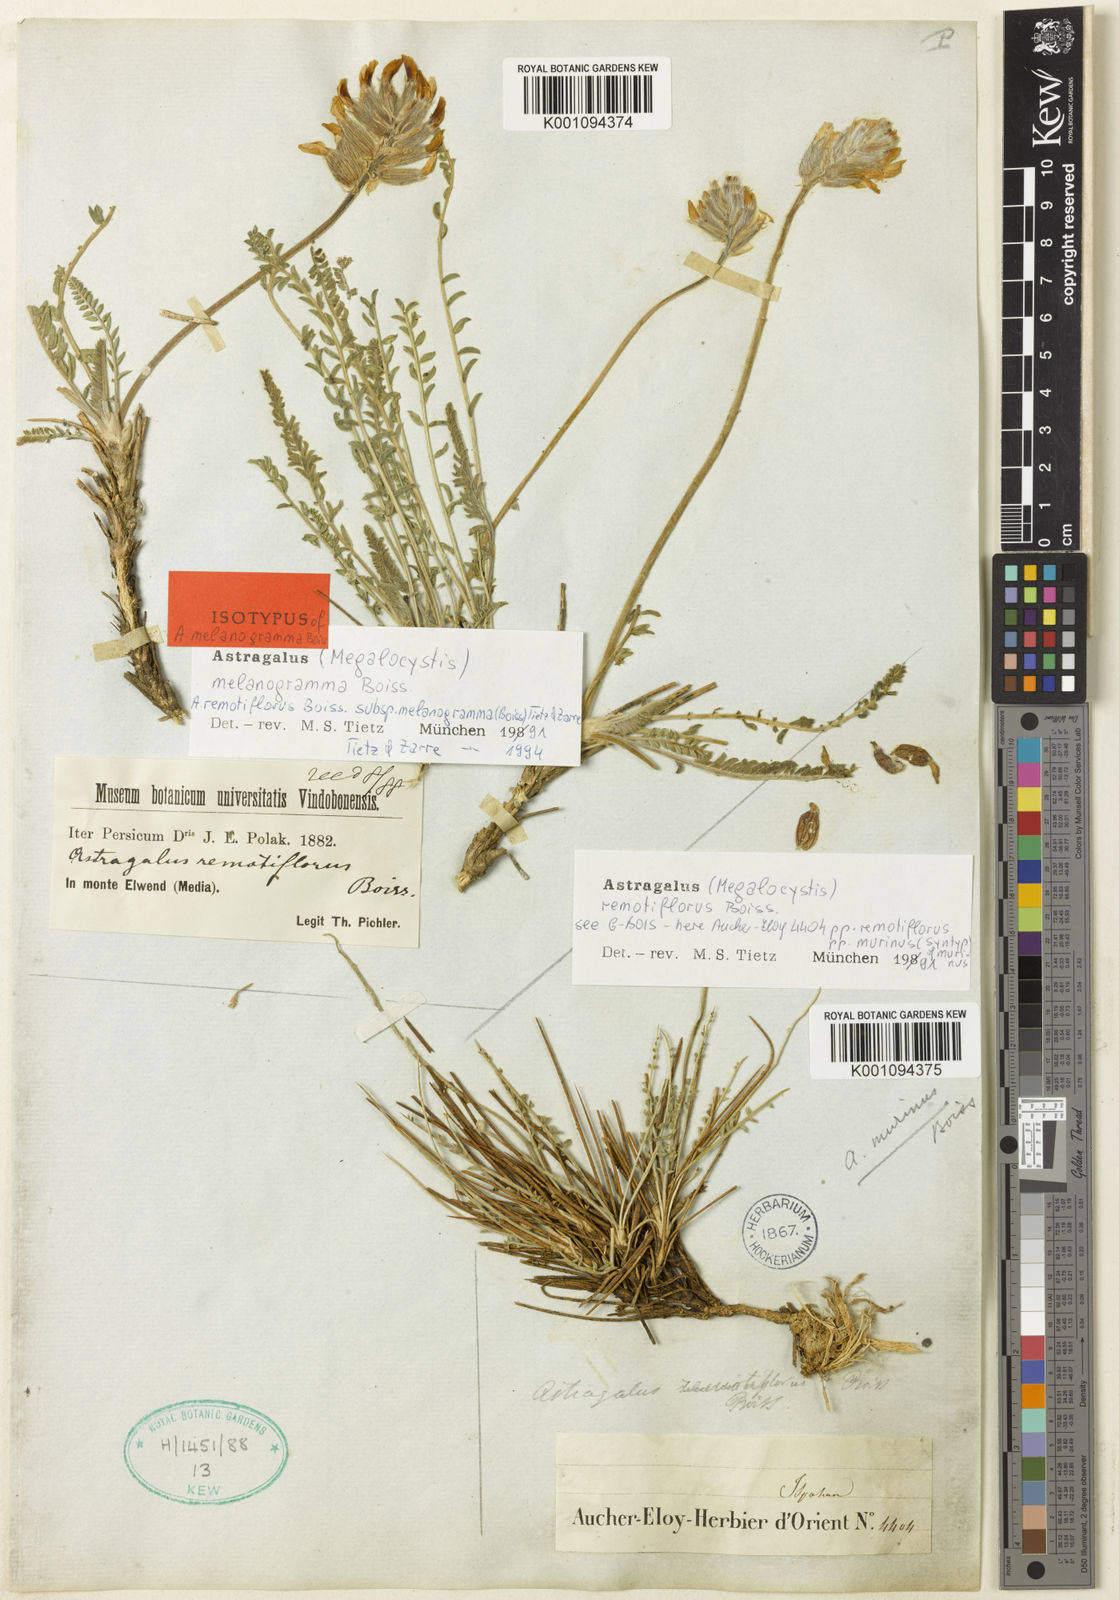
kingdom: Plantae
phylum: Tracheophyta
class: Magnoliopsida
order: Fabales
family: Fabaceae
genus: Astragalus
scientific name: Astragalus
